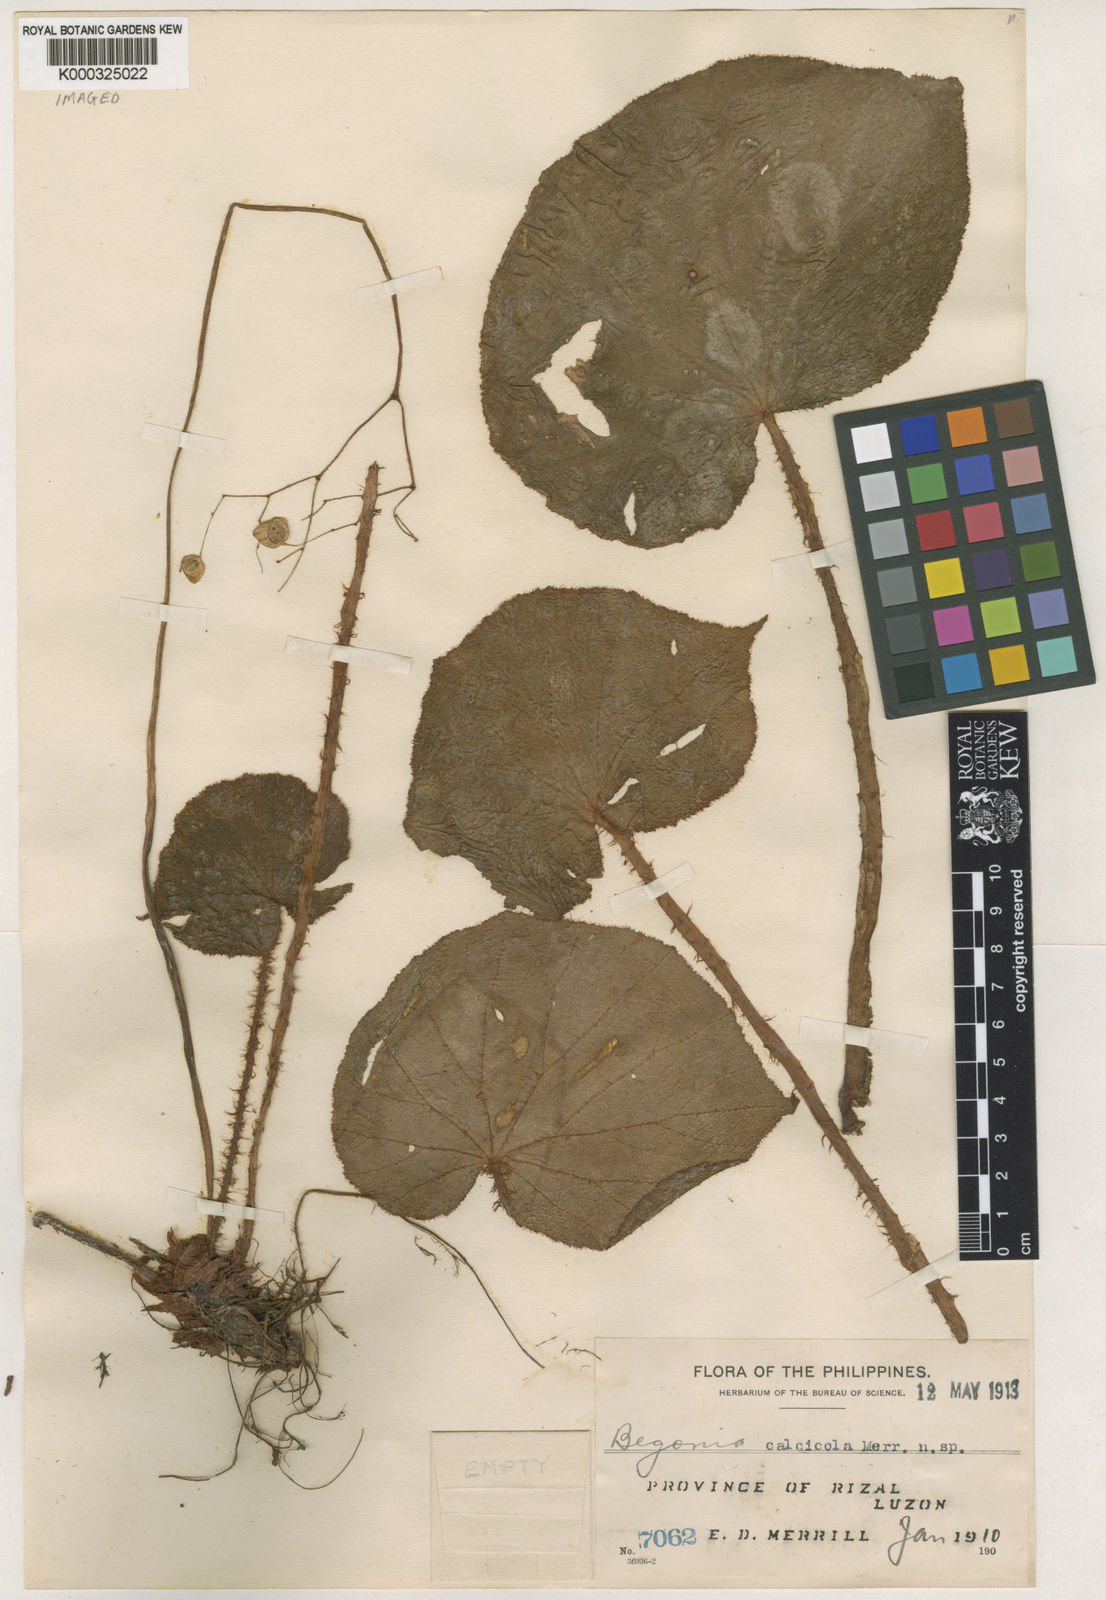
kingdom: Plantae
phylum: Tracheophyta
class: Magnoliopsida
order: Cucurbitales
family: Begoniaceae
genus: Begonia
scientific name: Begonia calcicola
